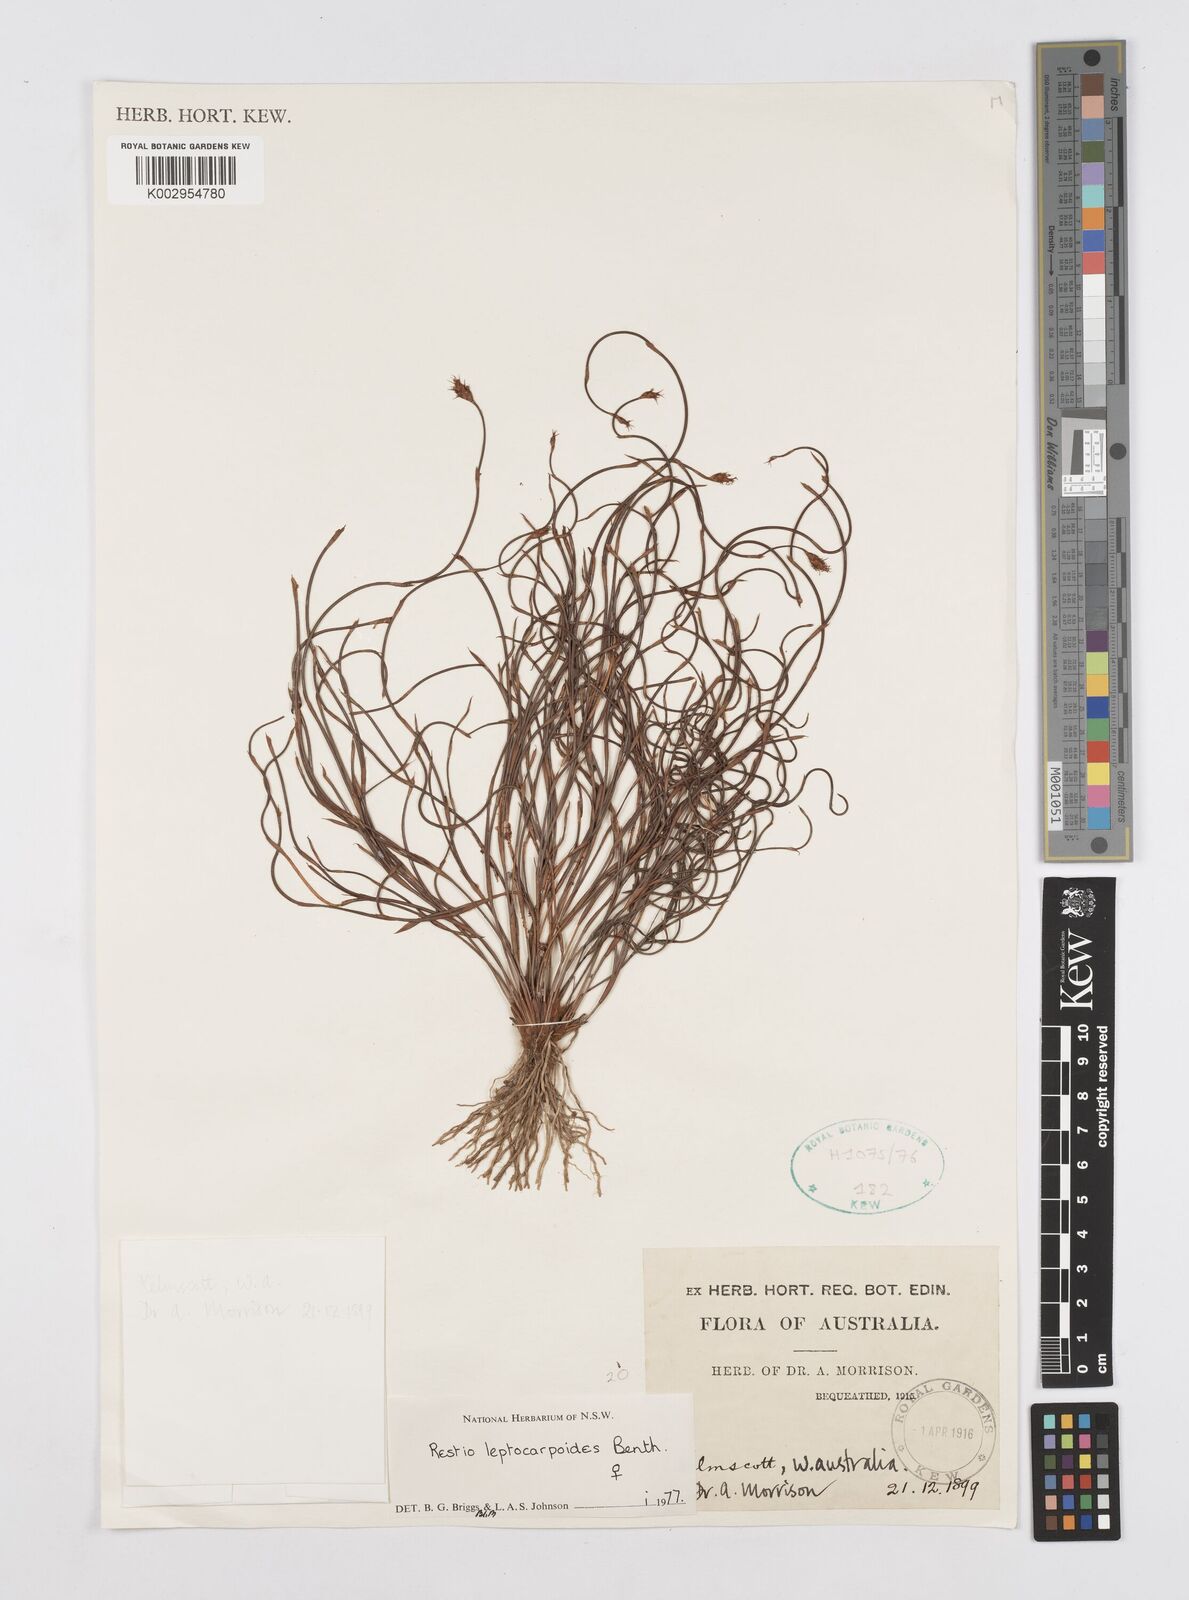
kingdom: Plantae
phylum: Tracheophyta
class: Liliopsida
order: Poales
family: Restionaceae
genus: Cytogonidium
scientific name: Cytogonidium leptocarpoides
